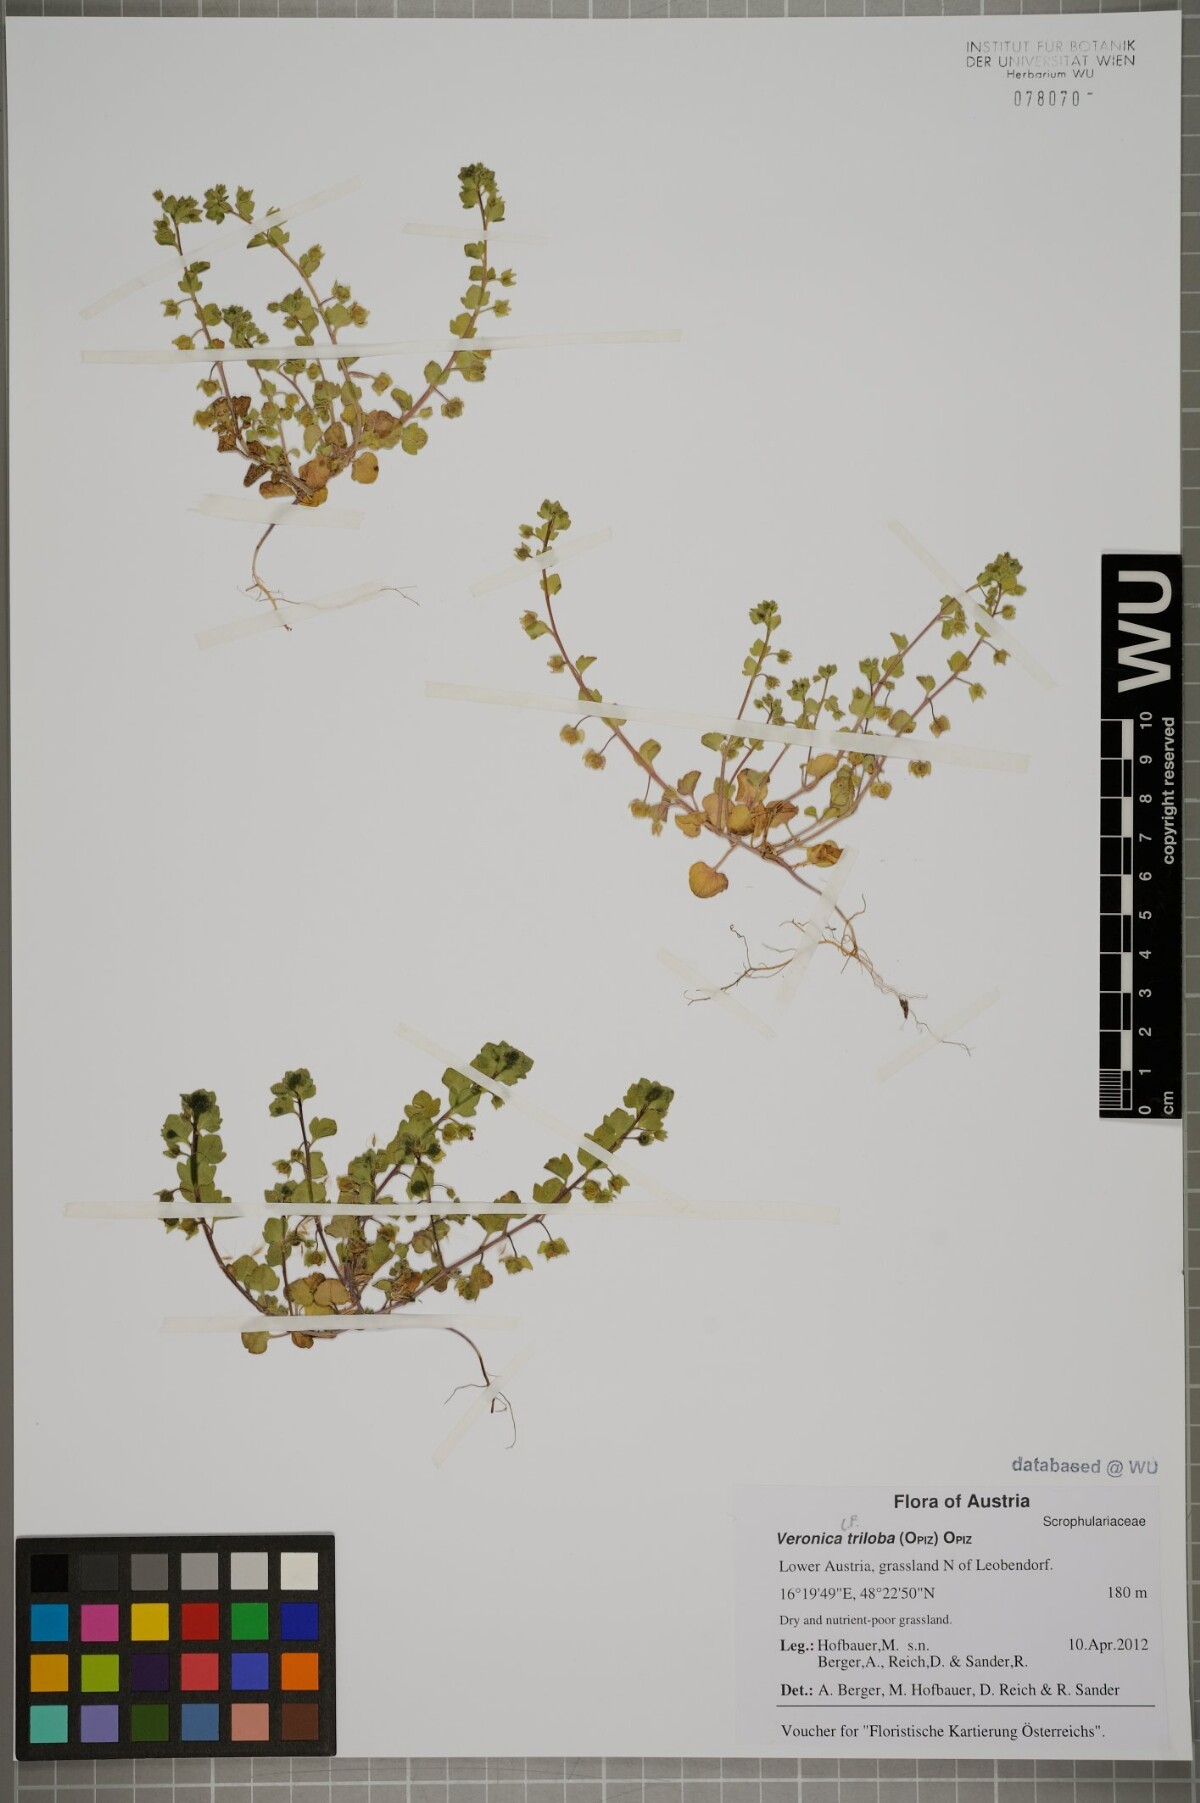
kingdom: Plantae
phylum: Tracheophyta
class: Magnoliopsida
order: Lamiales
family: Plantaginaceae
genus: Veronica
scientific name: Veronica triloba
